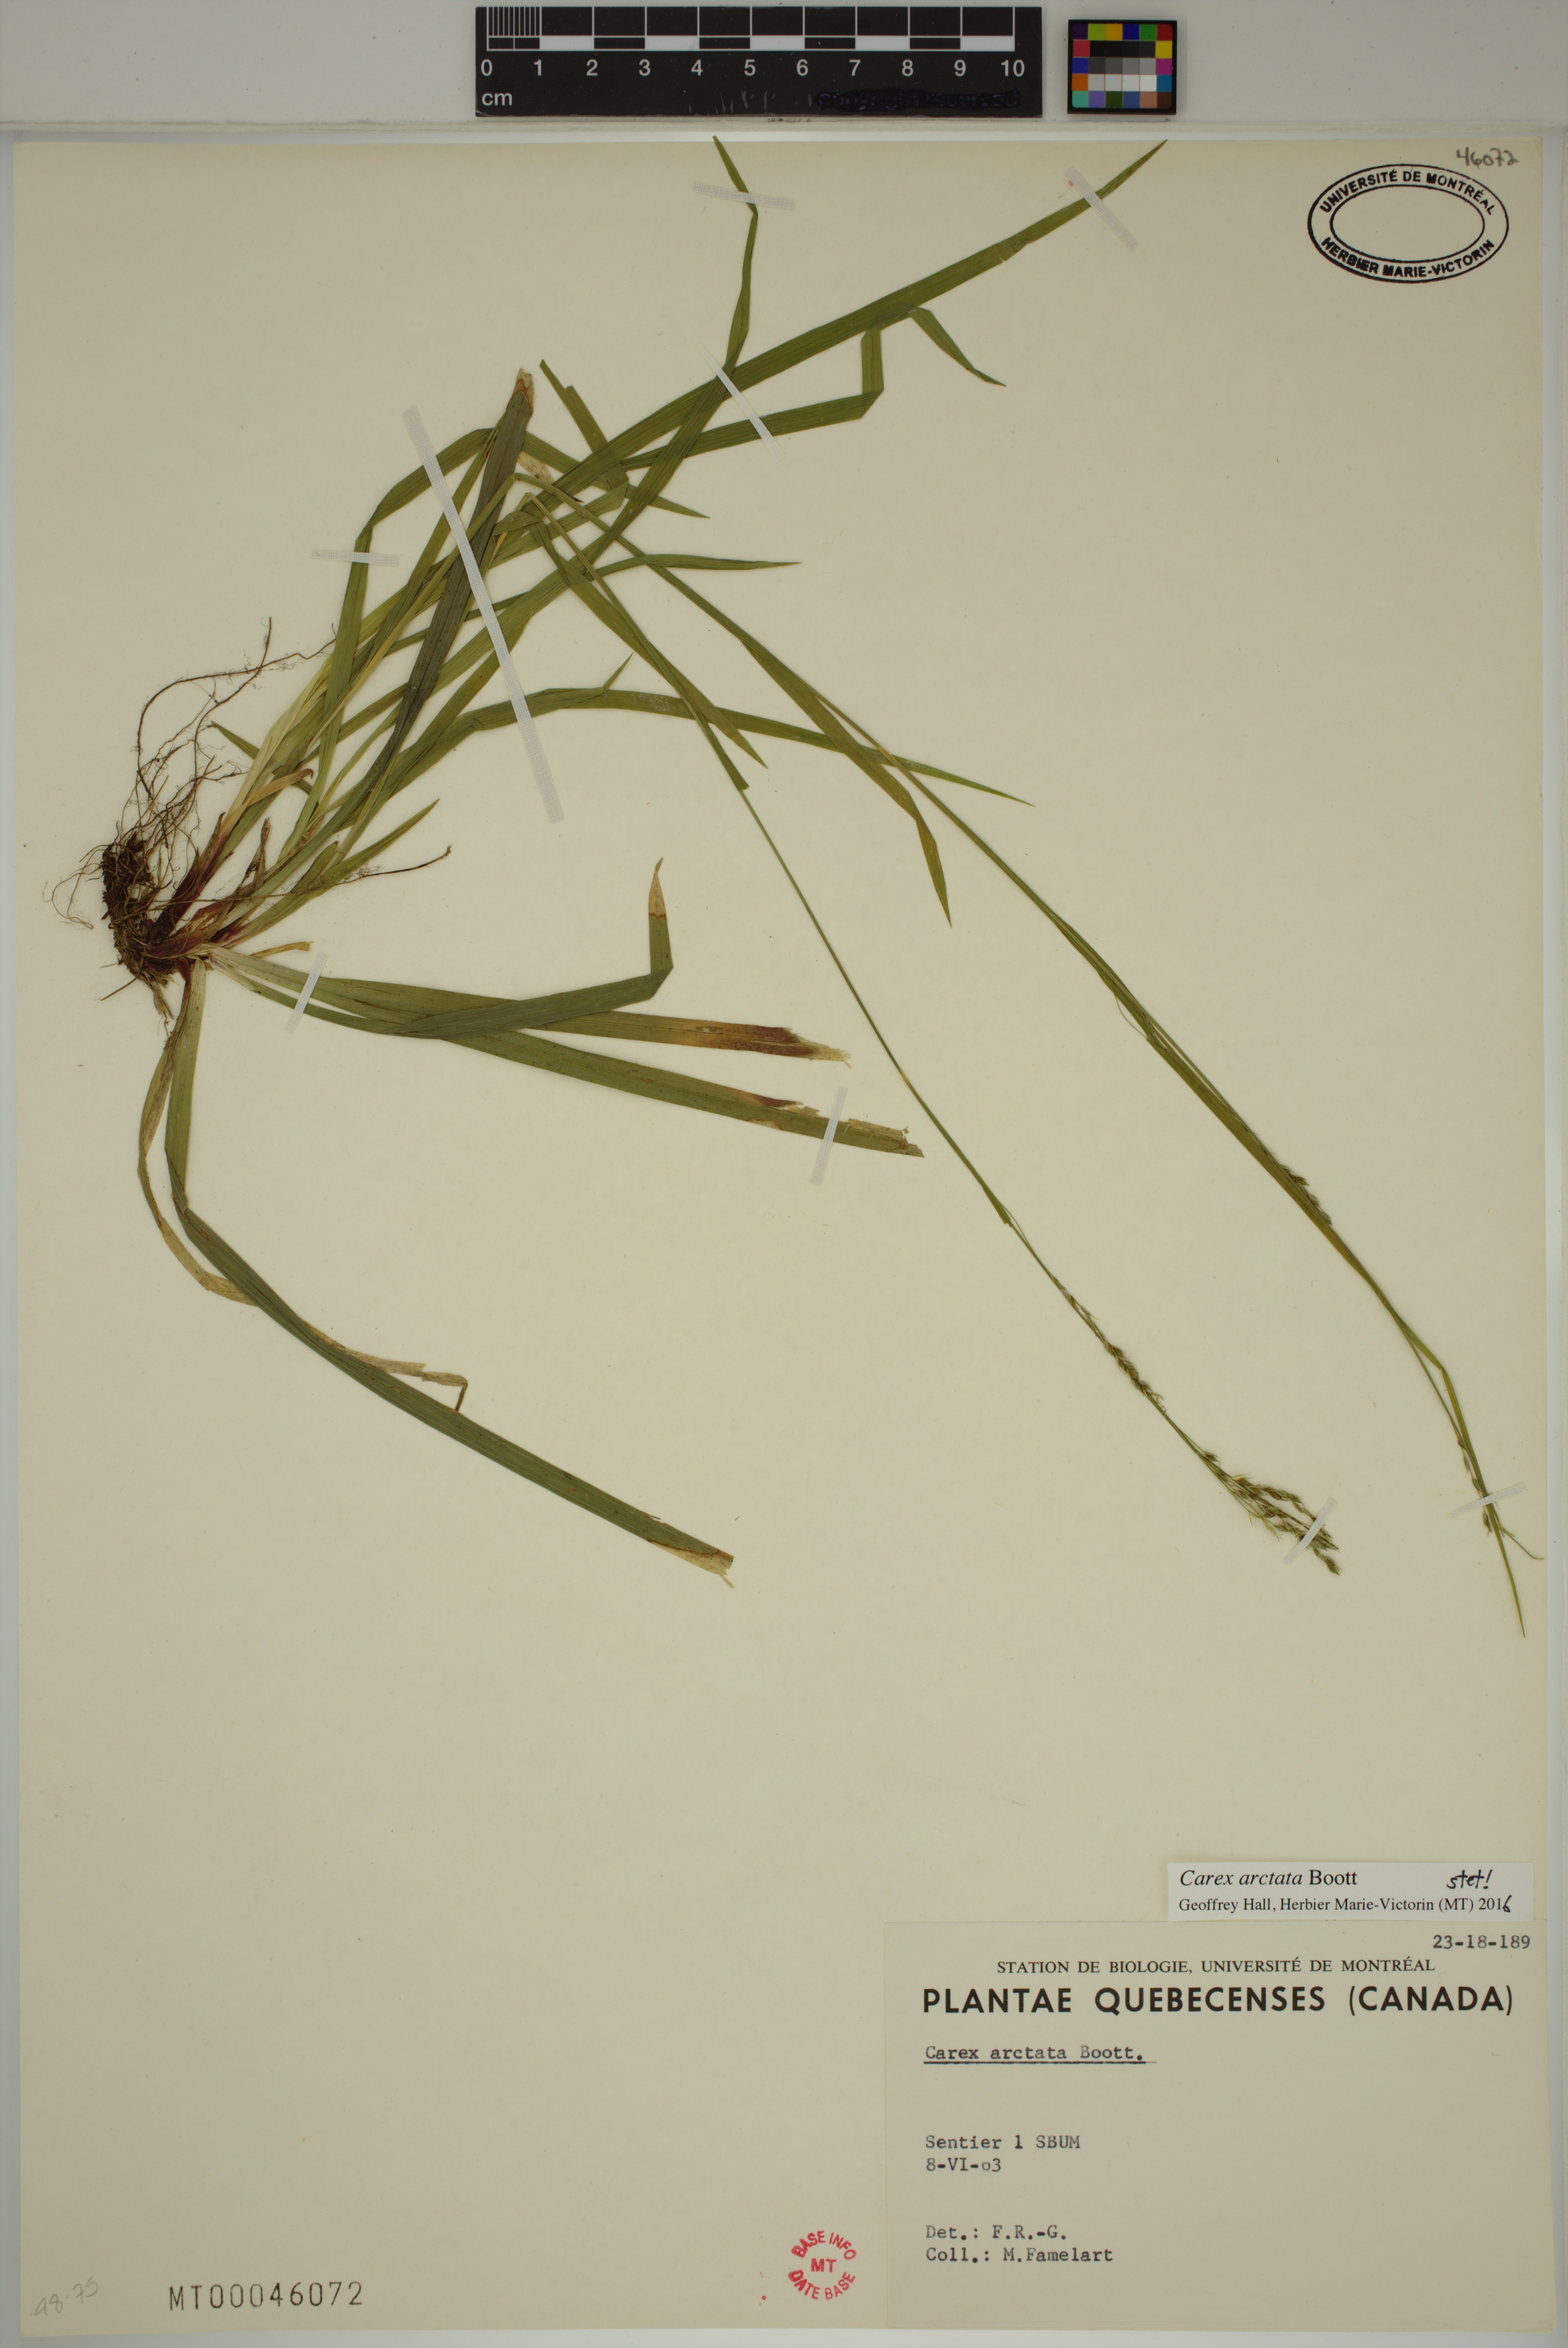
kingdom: Plantae
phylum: Tracheophyta
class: Liliopsida
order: Poales
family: Cyperaceae
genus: Carex
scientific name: Carex arctata
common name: Black sedge
